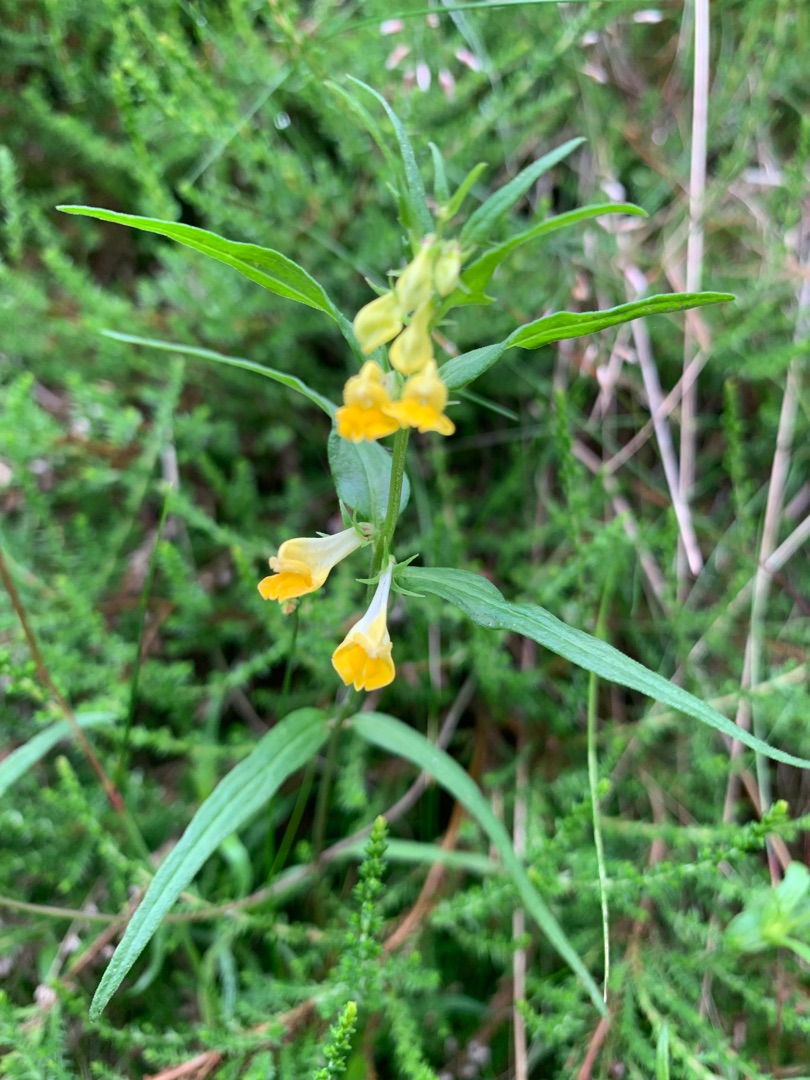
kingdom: Plantae
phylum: Tracheophyta
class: Magnoliopsida
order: Lamiales
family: Orobanchaceae
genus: Melampyrum
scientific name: Melampyrum pratense
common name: Almindelig kohvede
